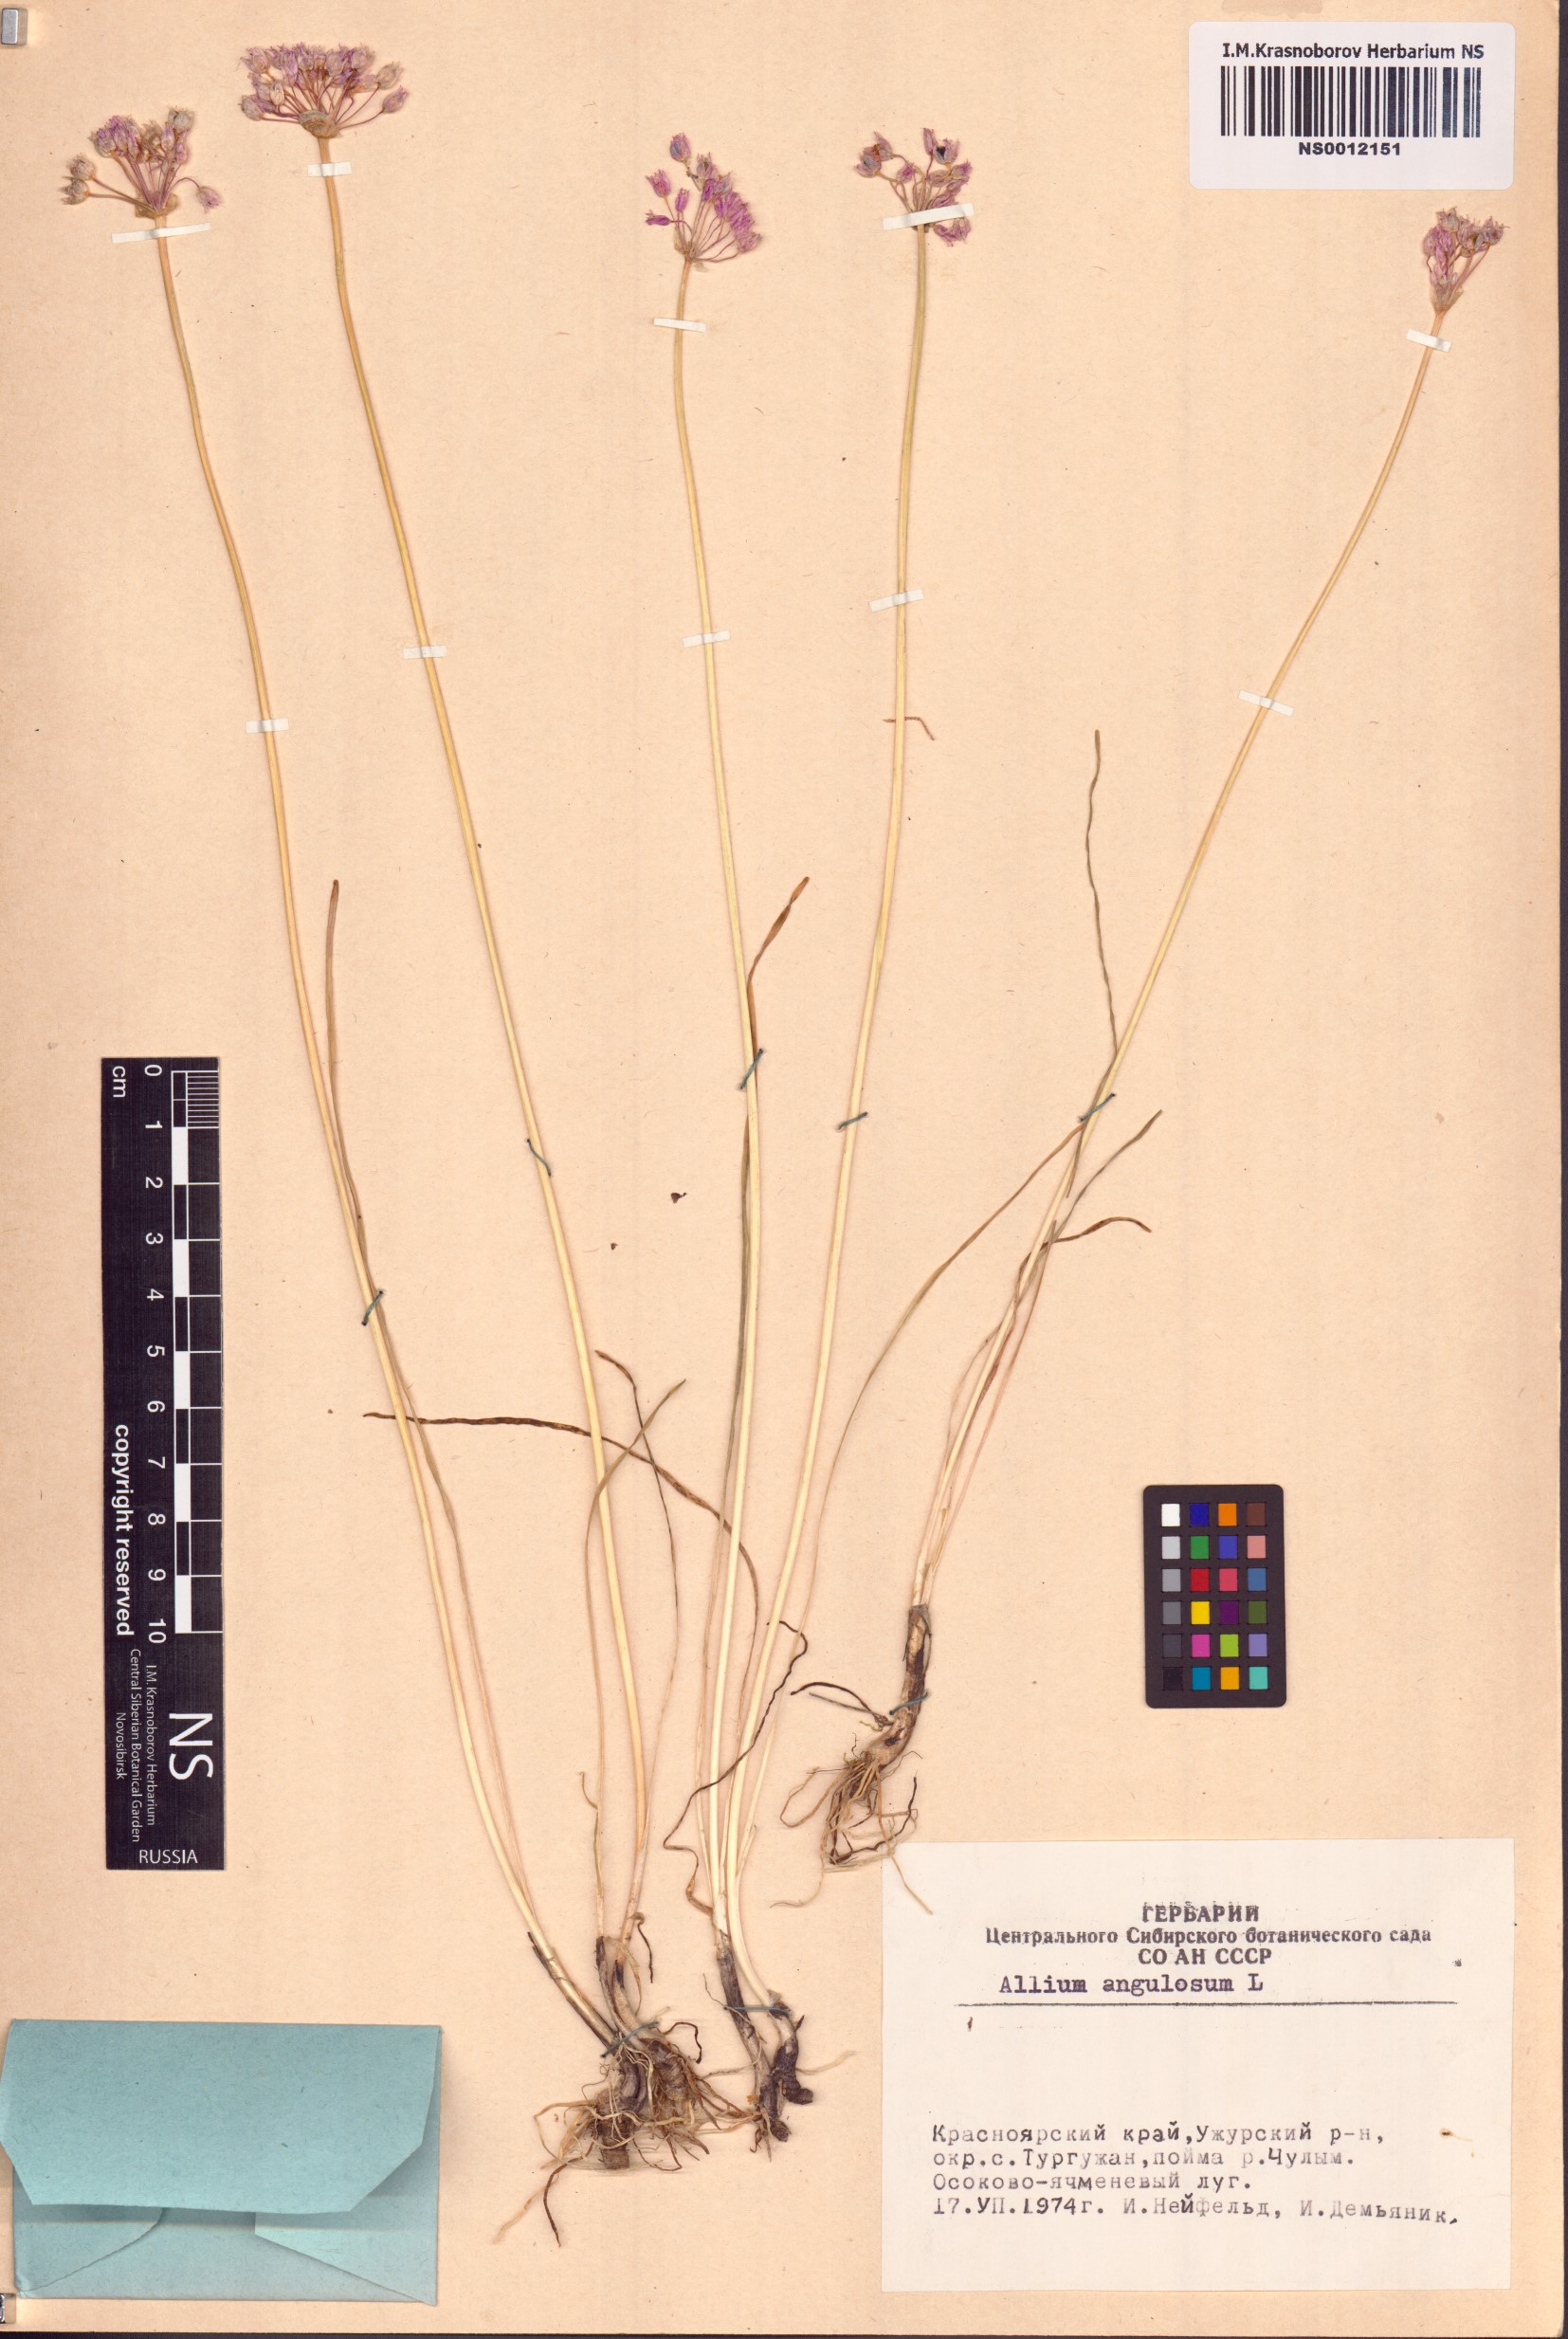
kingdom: Plantae
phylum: Tracheophyta
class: Liliopsida
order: Asparagales
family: Amaryllidaceae
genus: Allium
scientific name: Allium angulosum
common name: Mouse garlic
